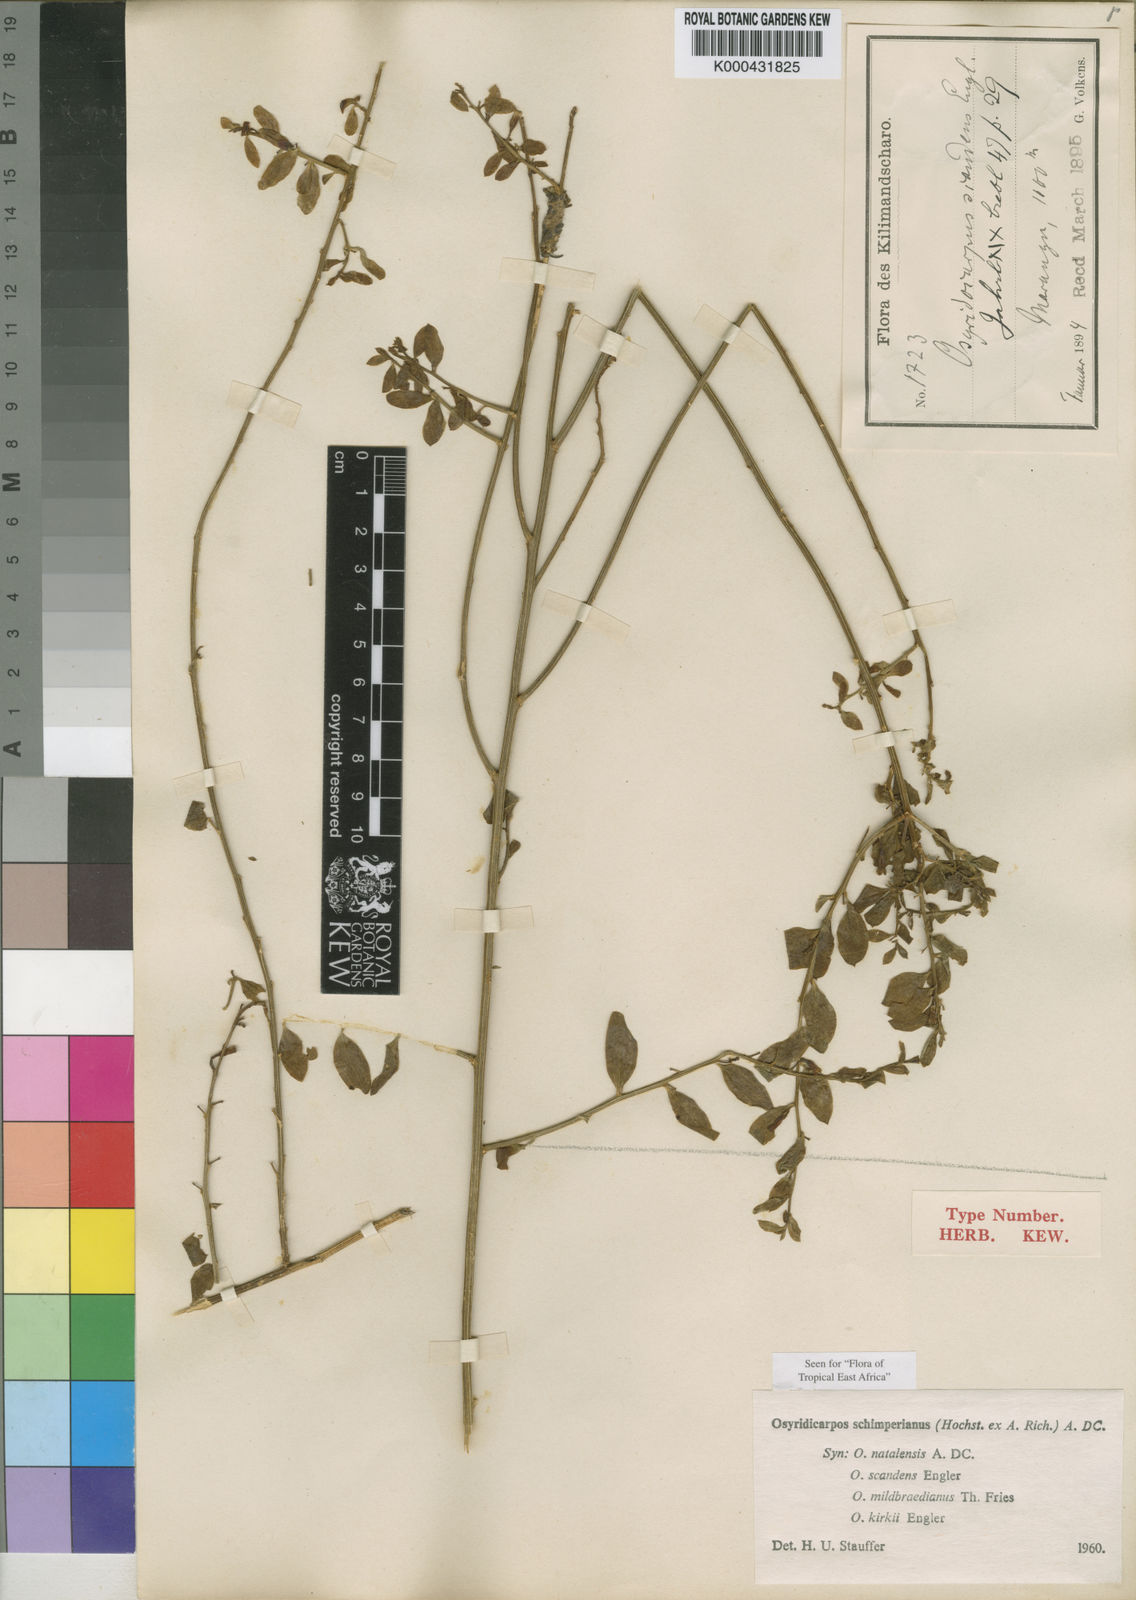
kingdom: Plantae
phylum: Tracheophyta
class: Magnoliopsida
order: Santalales
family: Thesiaceae
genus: Osyridicarpos
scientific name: Osyridicarpos schimperianus
